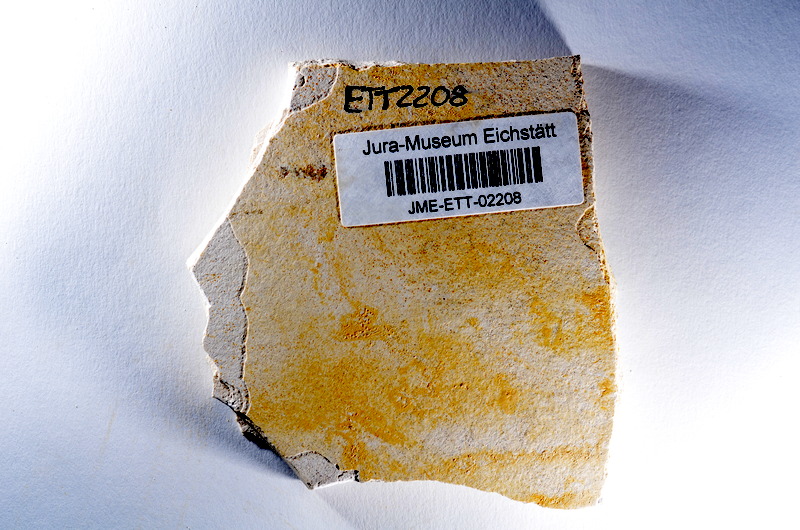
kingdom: Animalia
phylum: Chordata
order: Salmoniformes
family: Orthogonikleithridae
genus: Orthogonikleithrus
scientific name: Orthogonikleithrus hoelli
